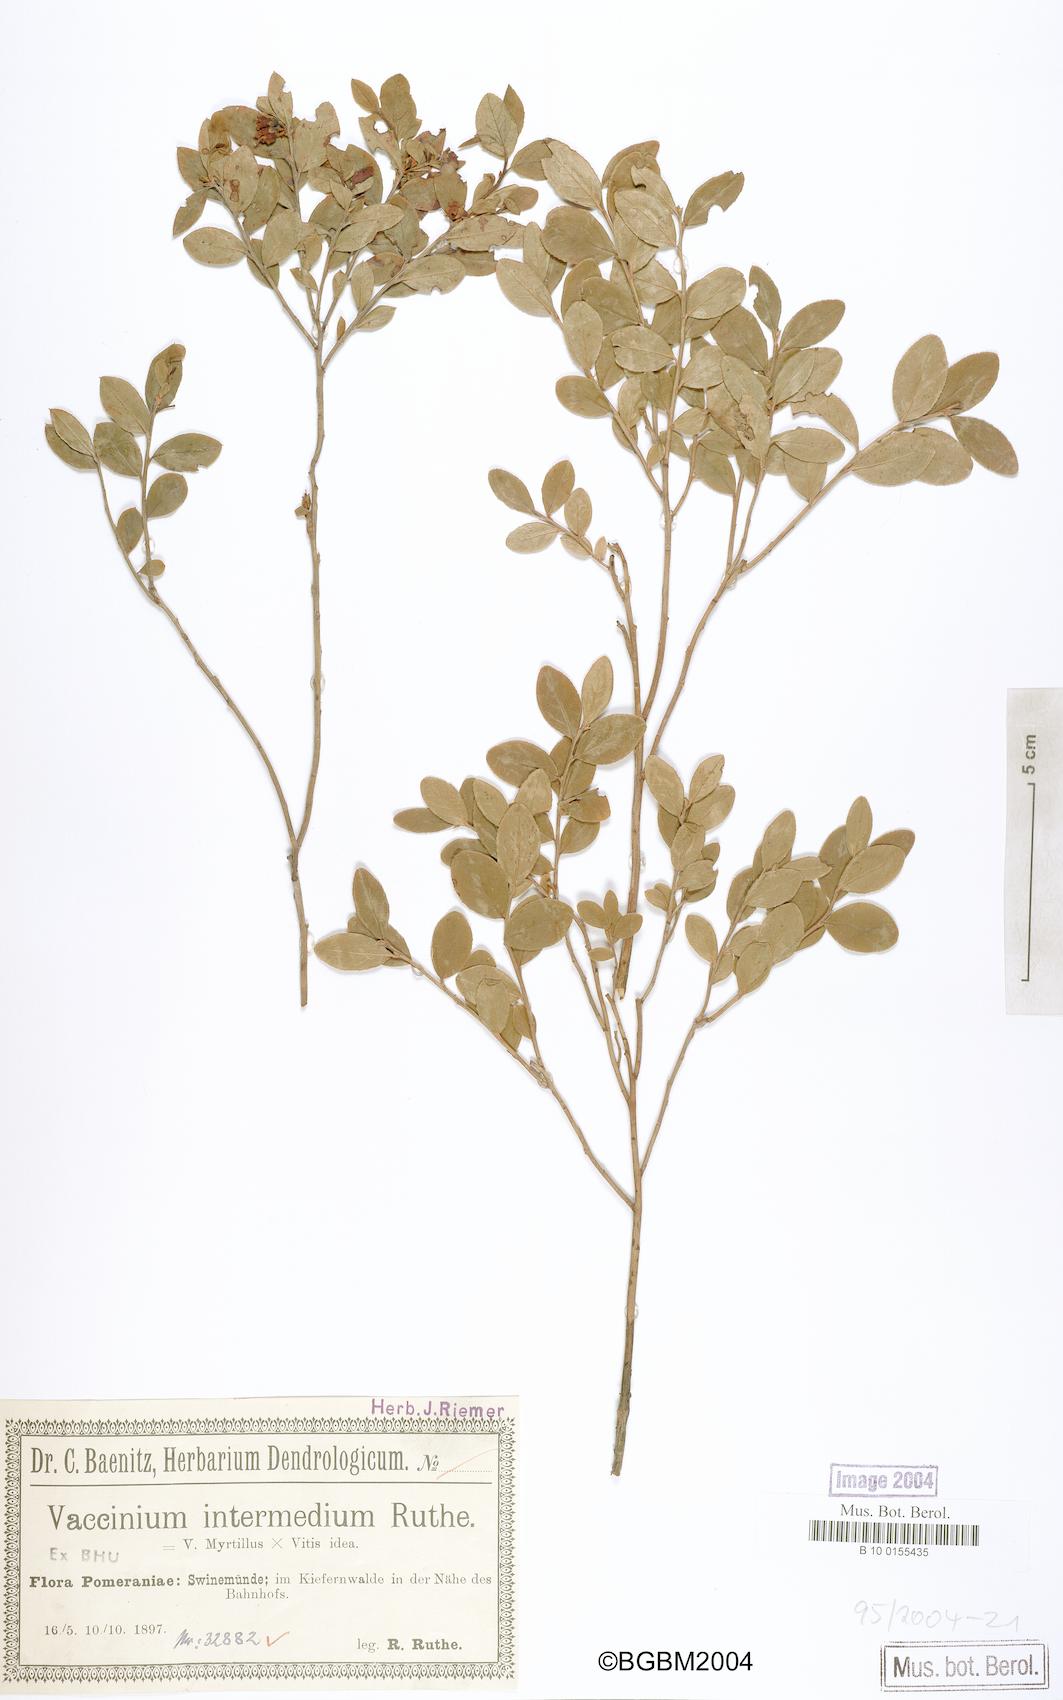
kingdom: Plantae
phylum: Tracheophyta
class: Magnoliopsida
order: Ericales
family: Ericaceae
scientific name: Ericaceae
